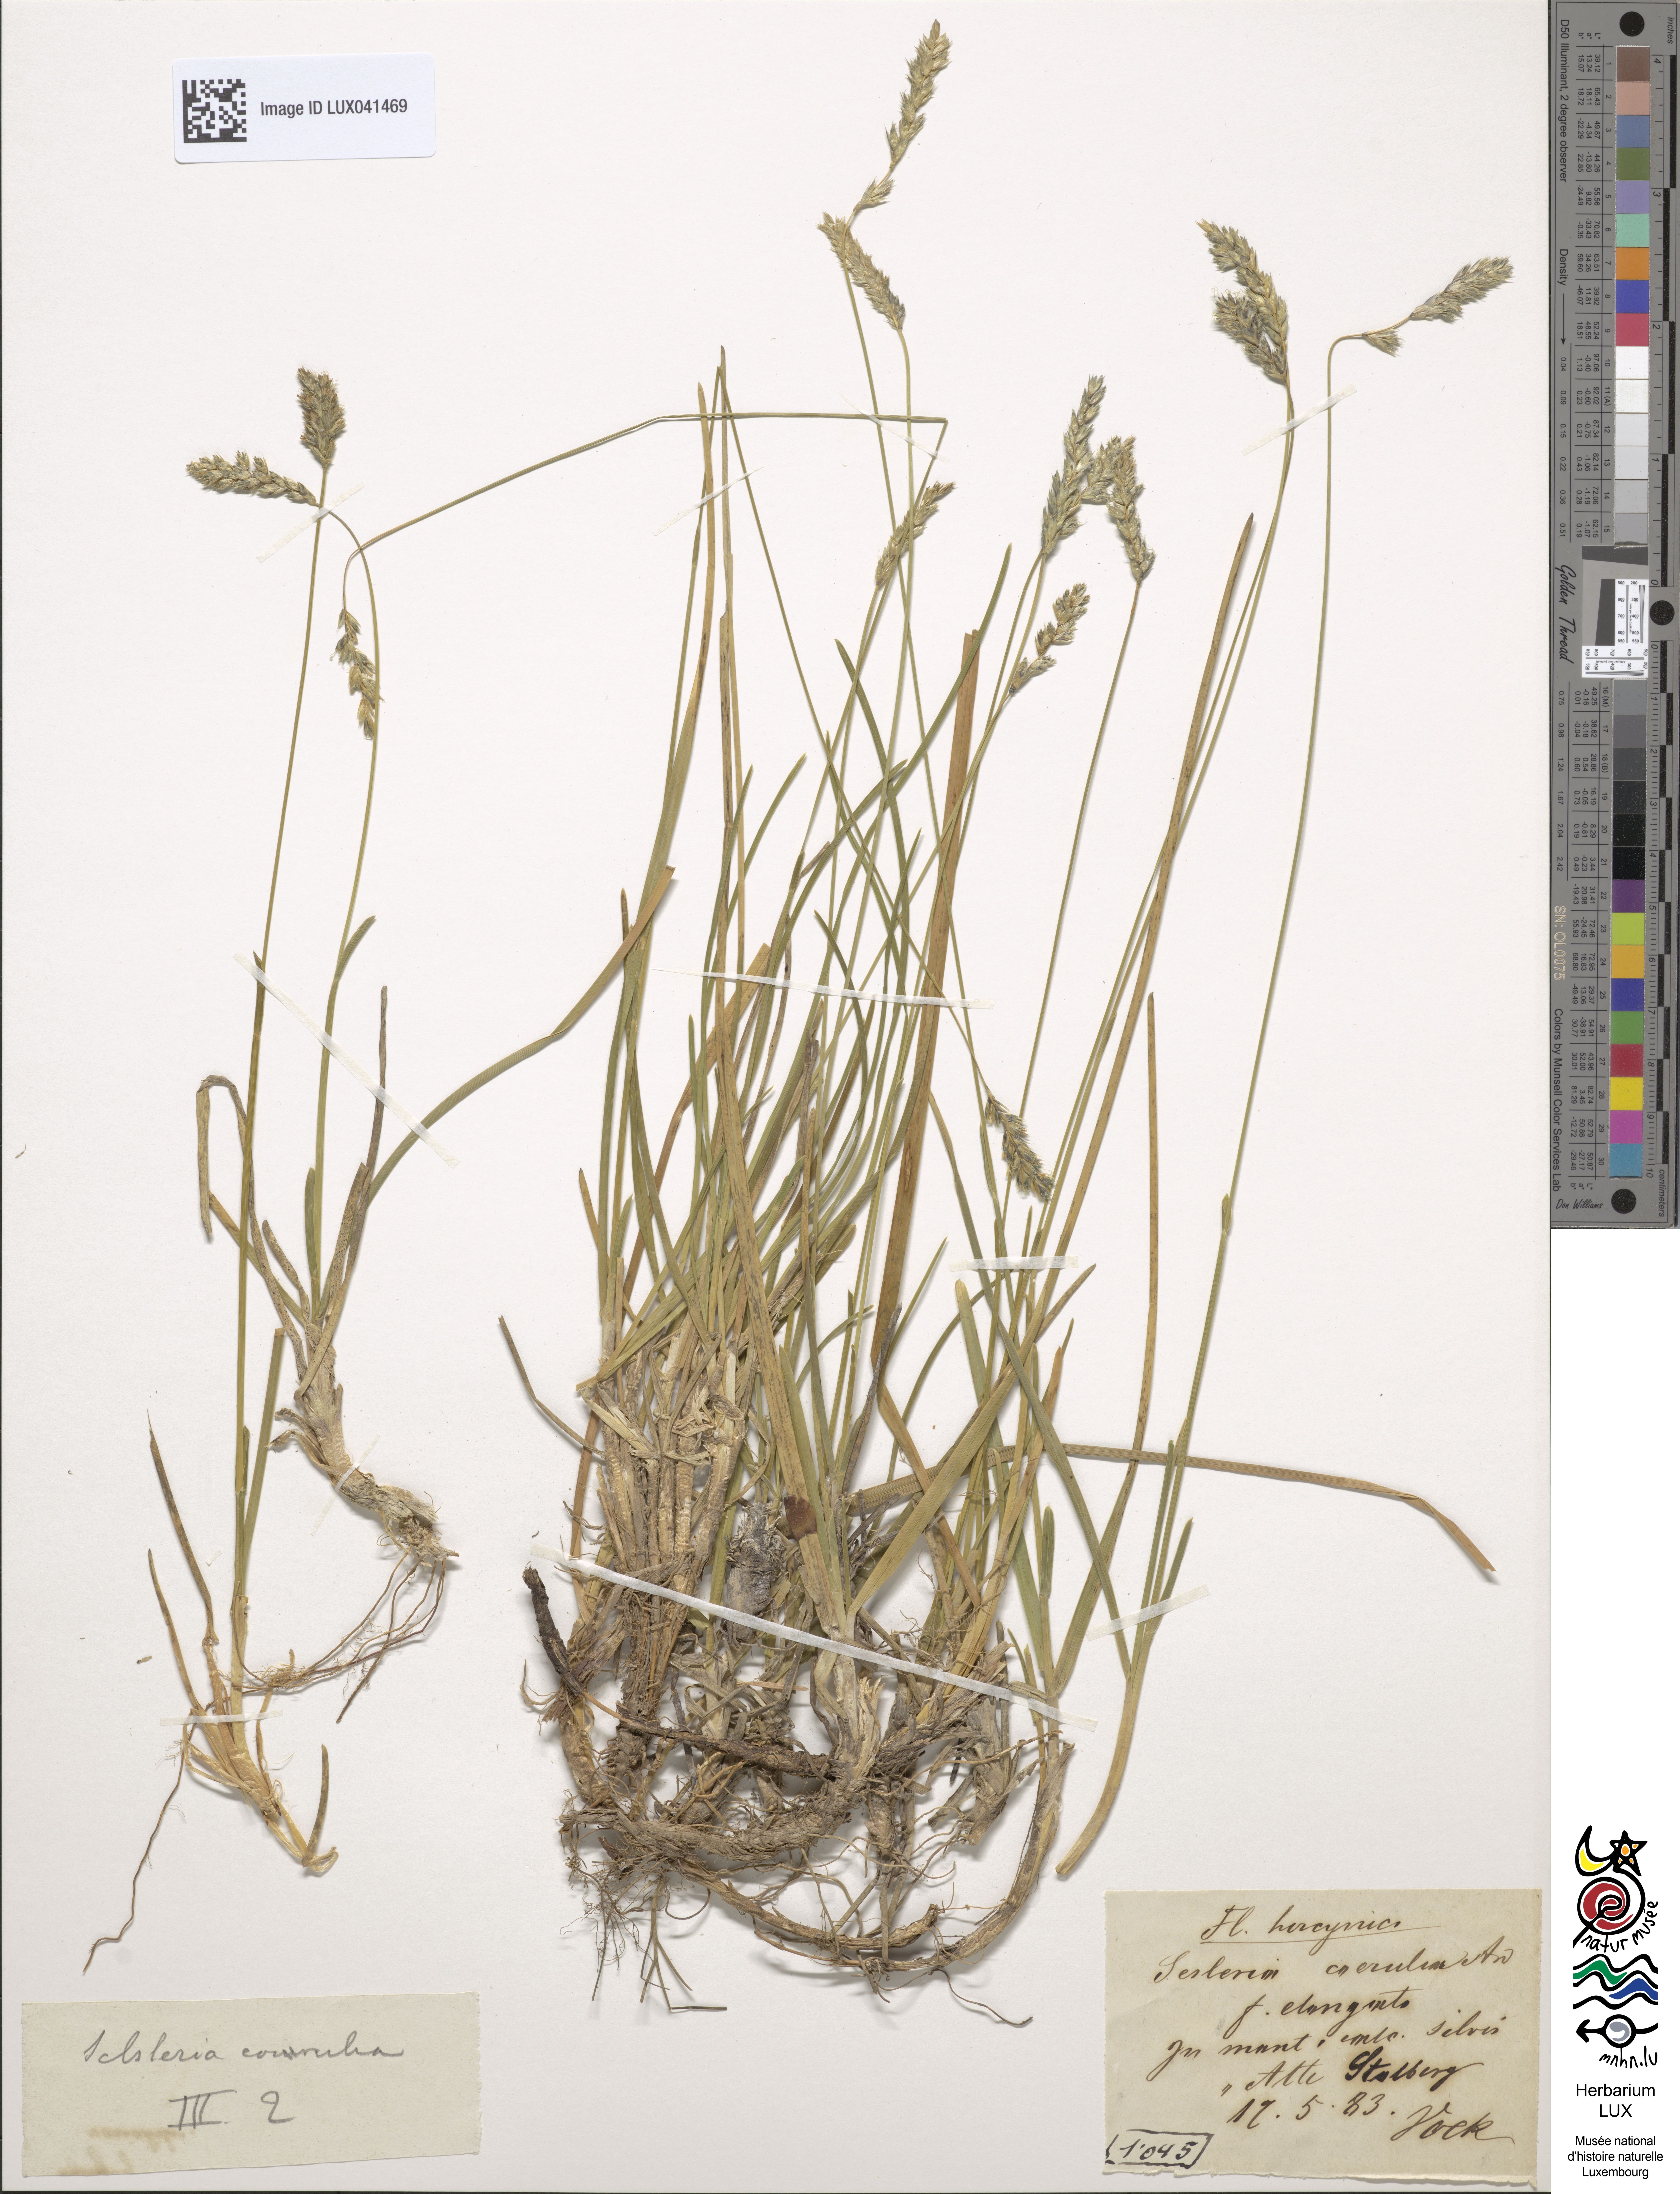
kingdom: Plantae
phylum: Tracheophyta
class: Liliopsida
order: Poales
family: Poaceae
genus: Sesleria
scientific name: Sesleria caerulea
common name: Blue moor-grass
